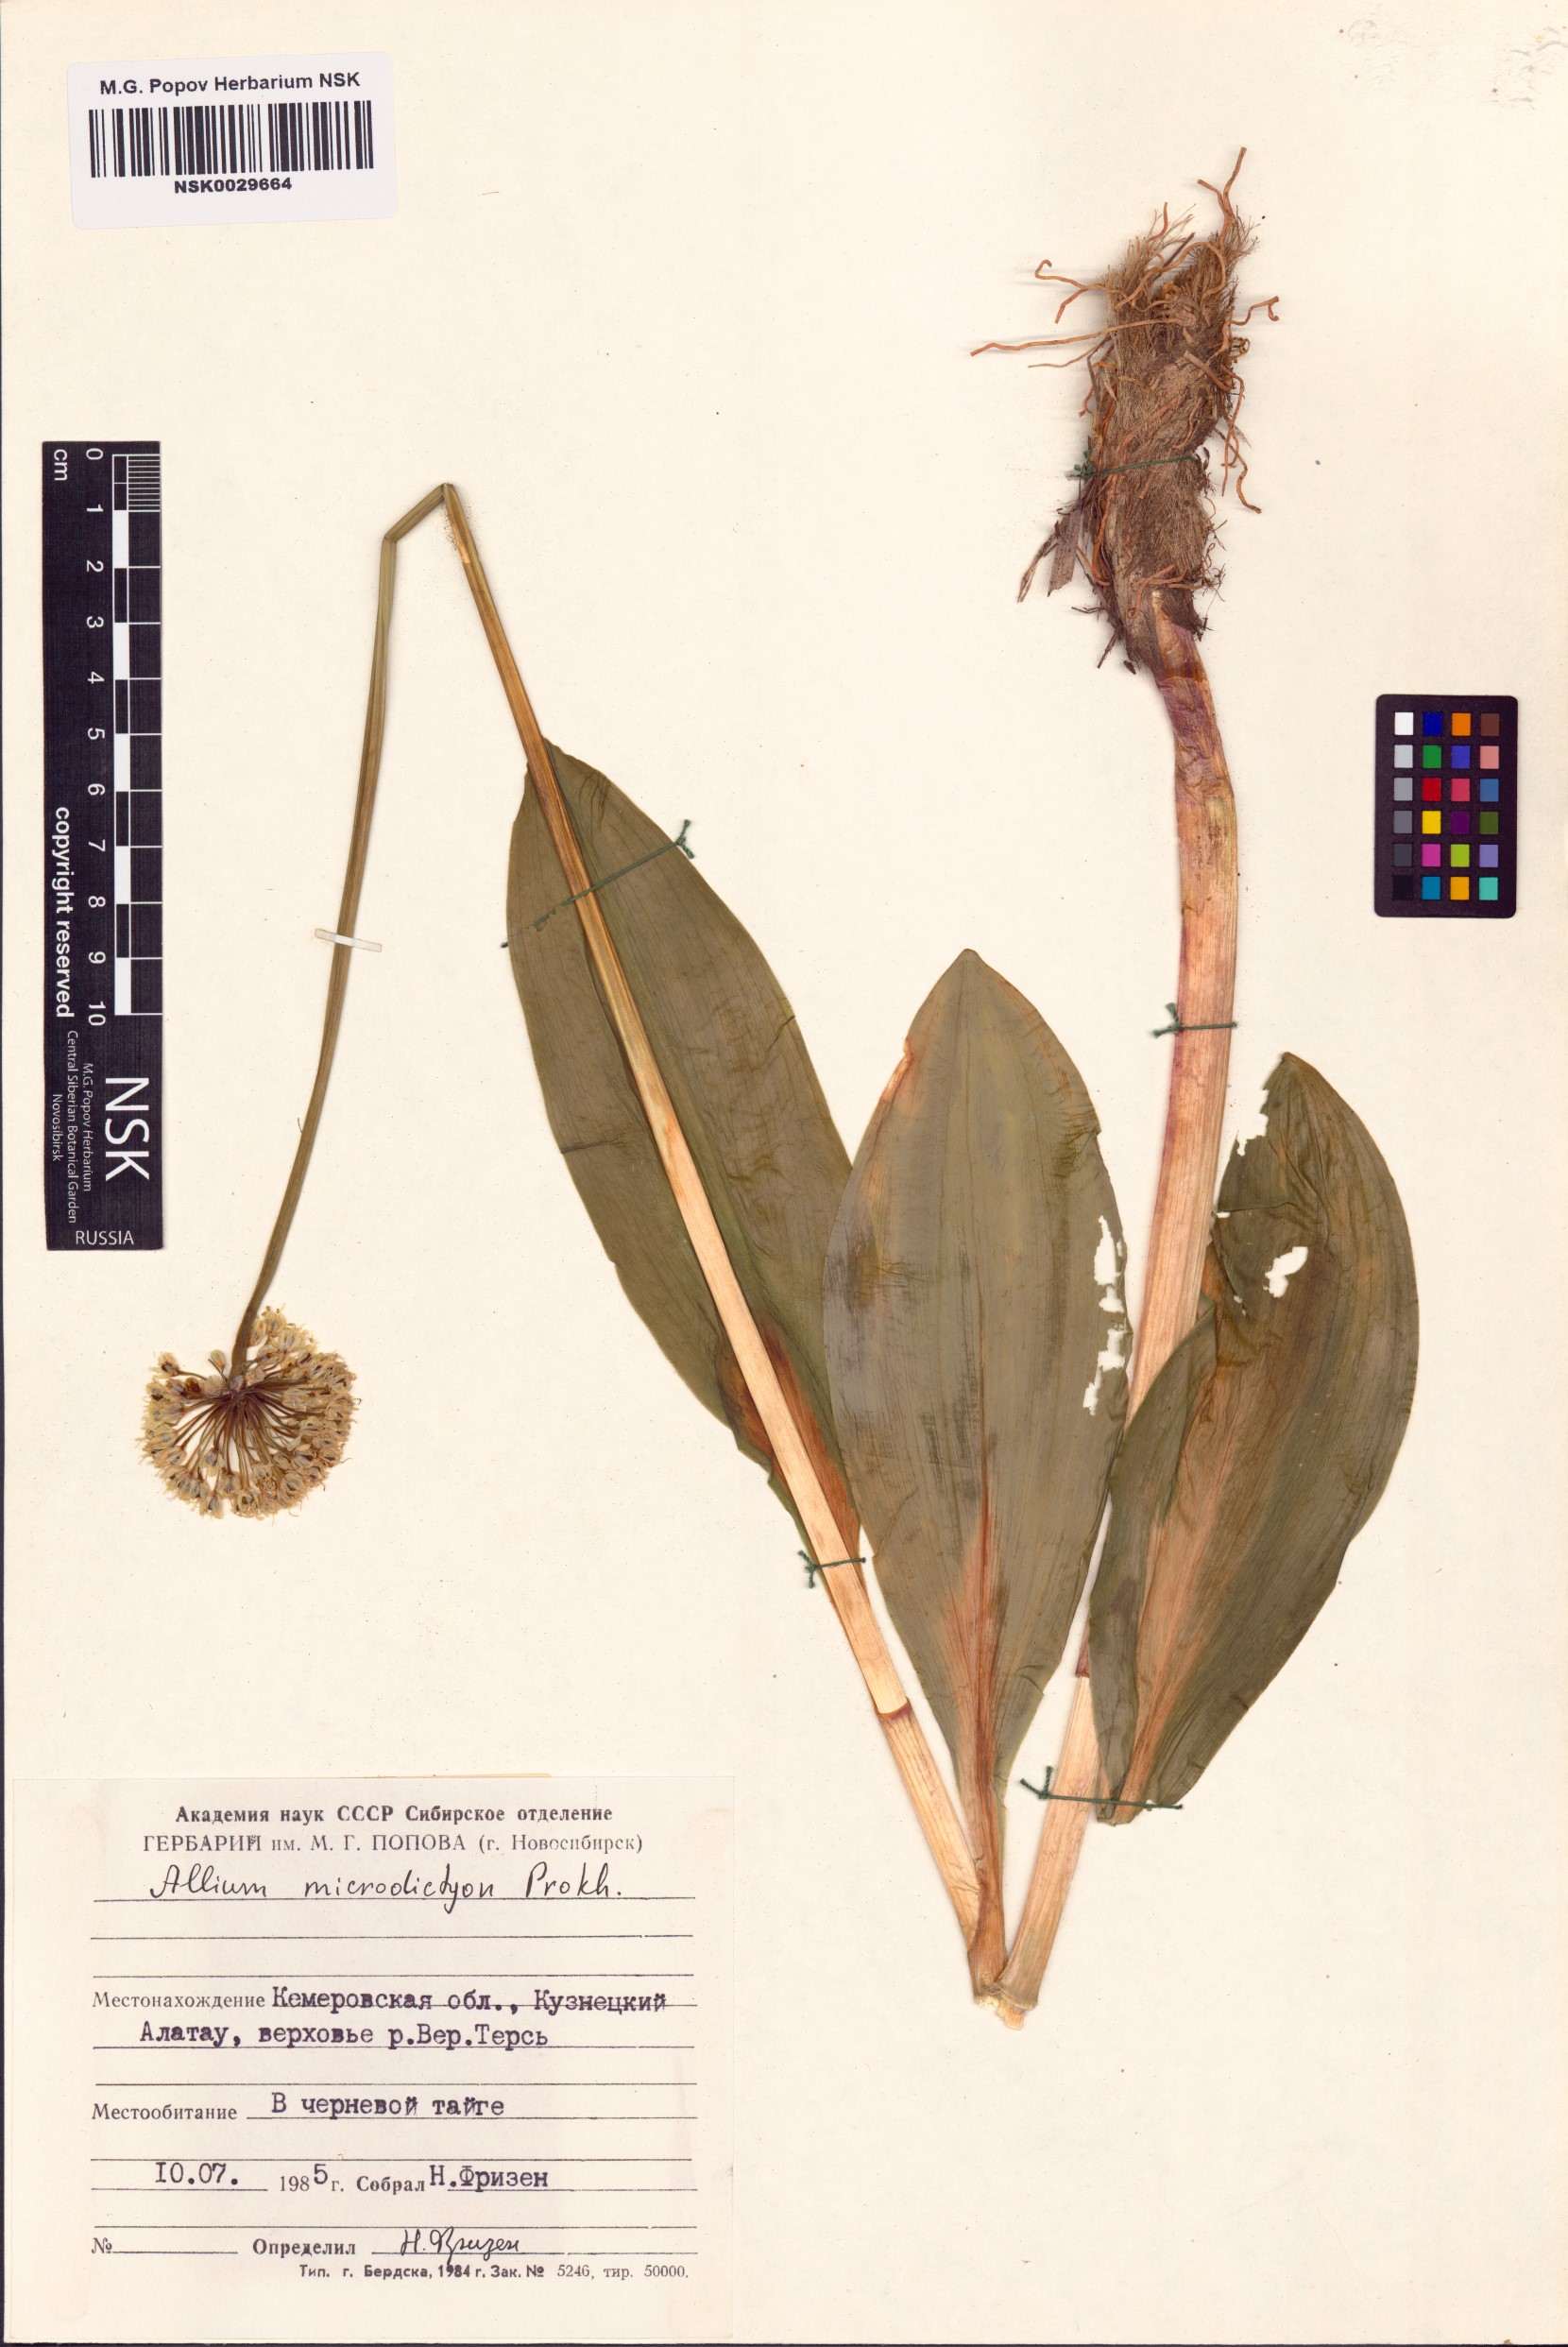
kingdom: Plantae
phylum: Tracheophyta
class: Liliopsida
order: Asparagales
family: Amaryllidaceae
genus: Allium
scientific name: Allium microdictyon
